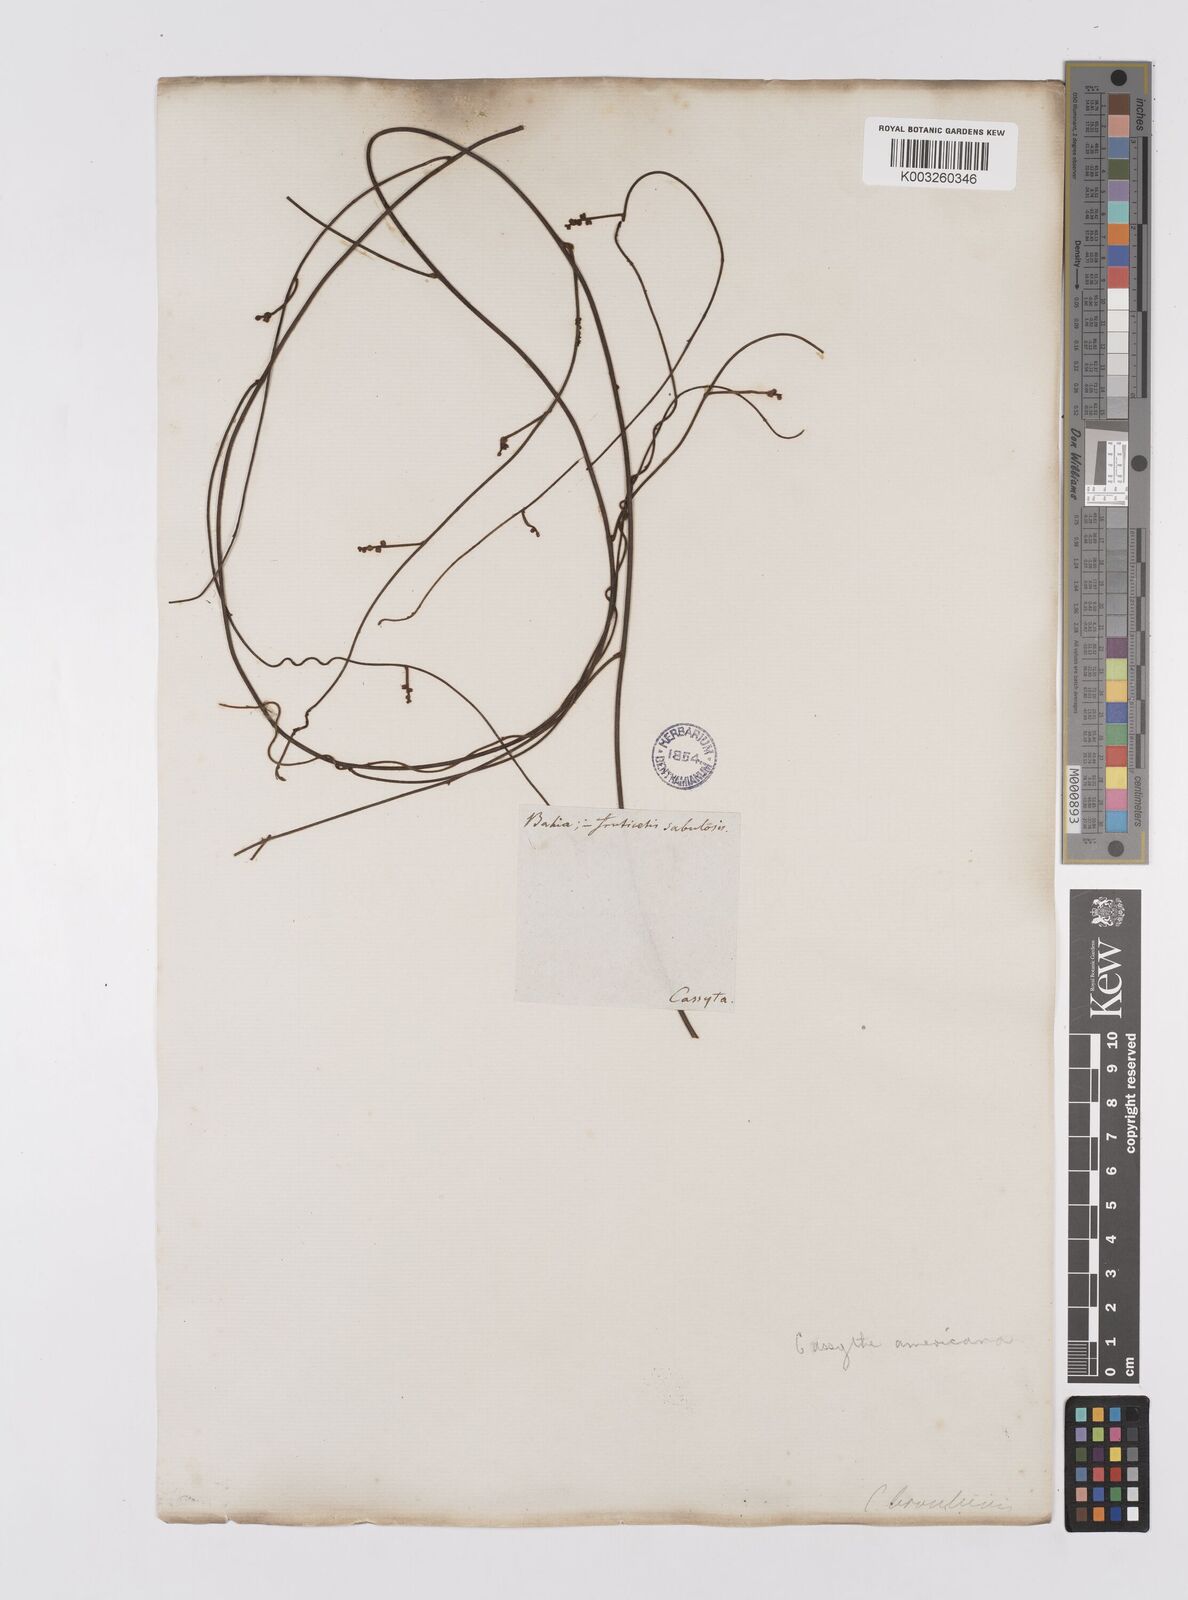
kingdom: Plantae
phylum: Tracheophyta
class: Magnoliopsida
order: Laurales
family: Lauraceae
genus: Cassytha
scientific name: Cassytha filiformis
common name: Dodder-laurel
